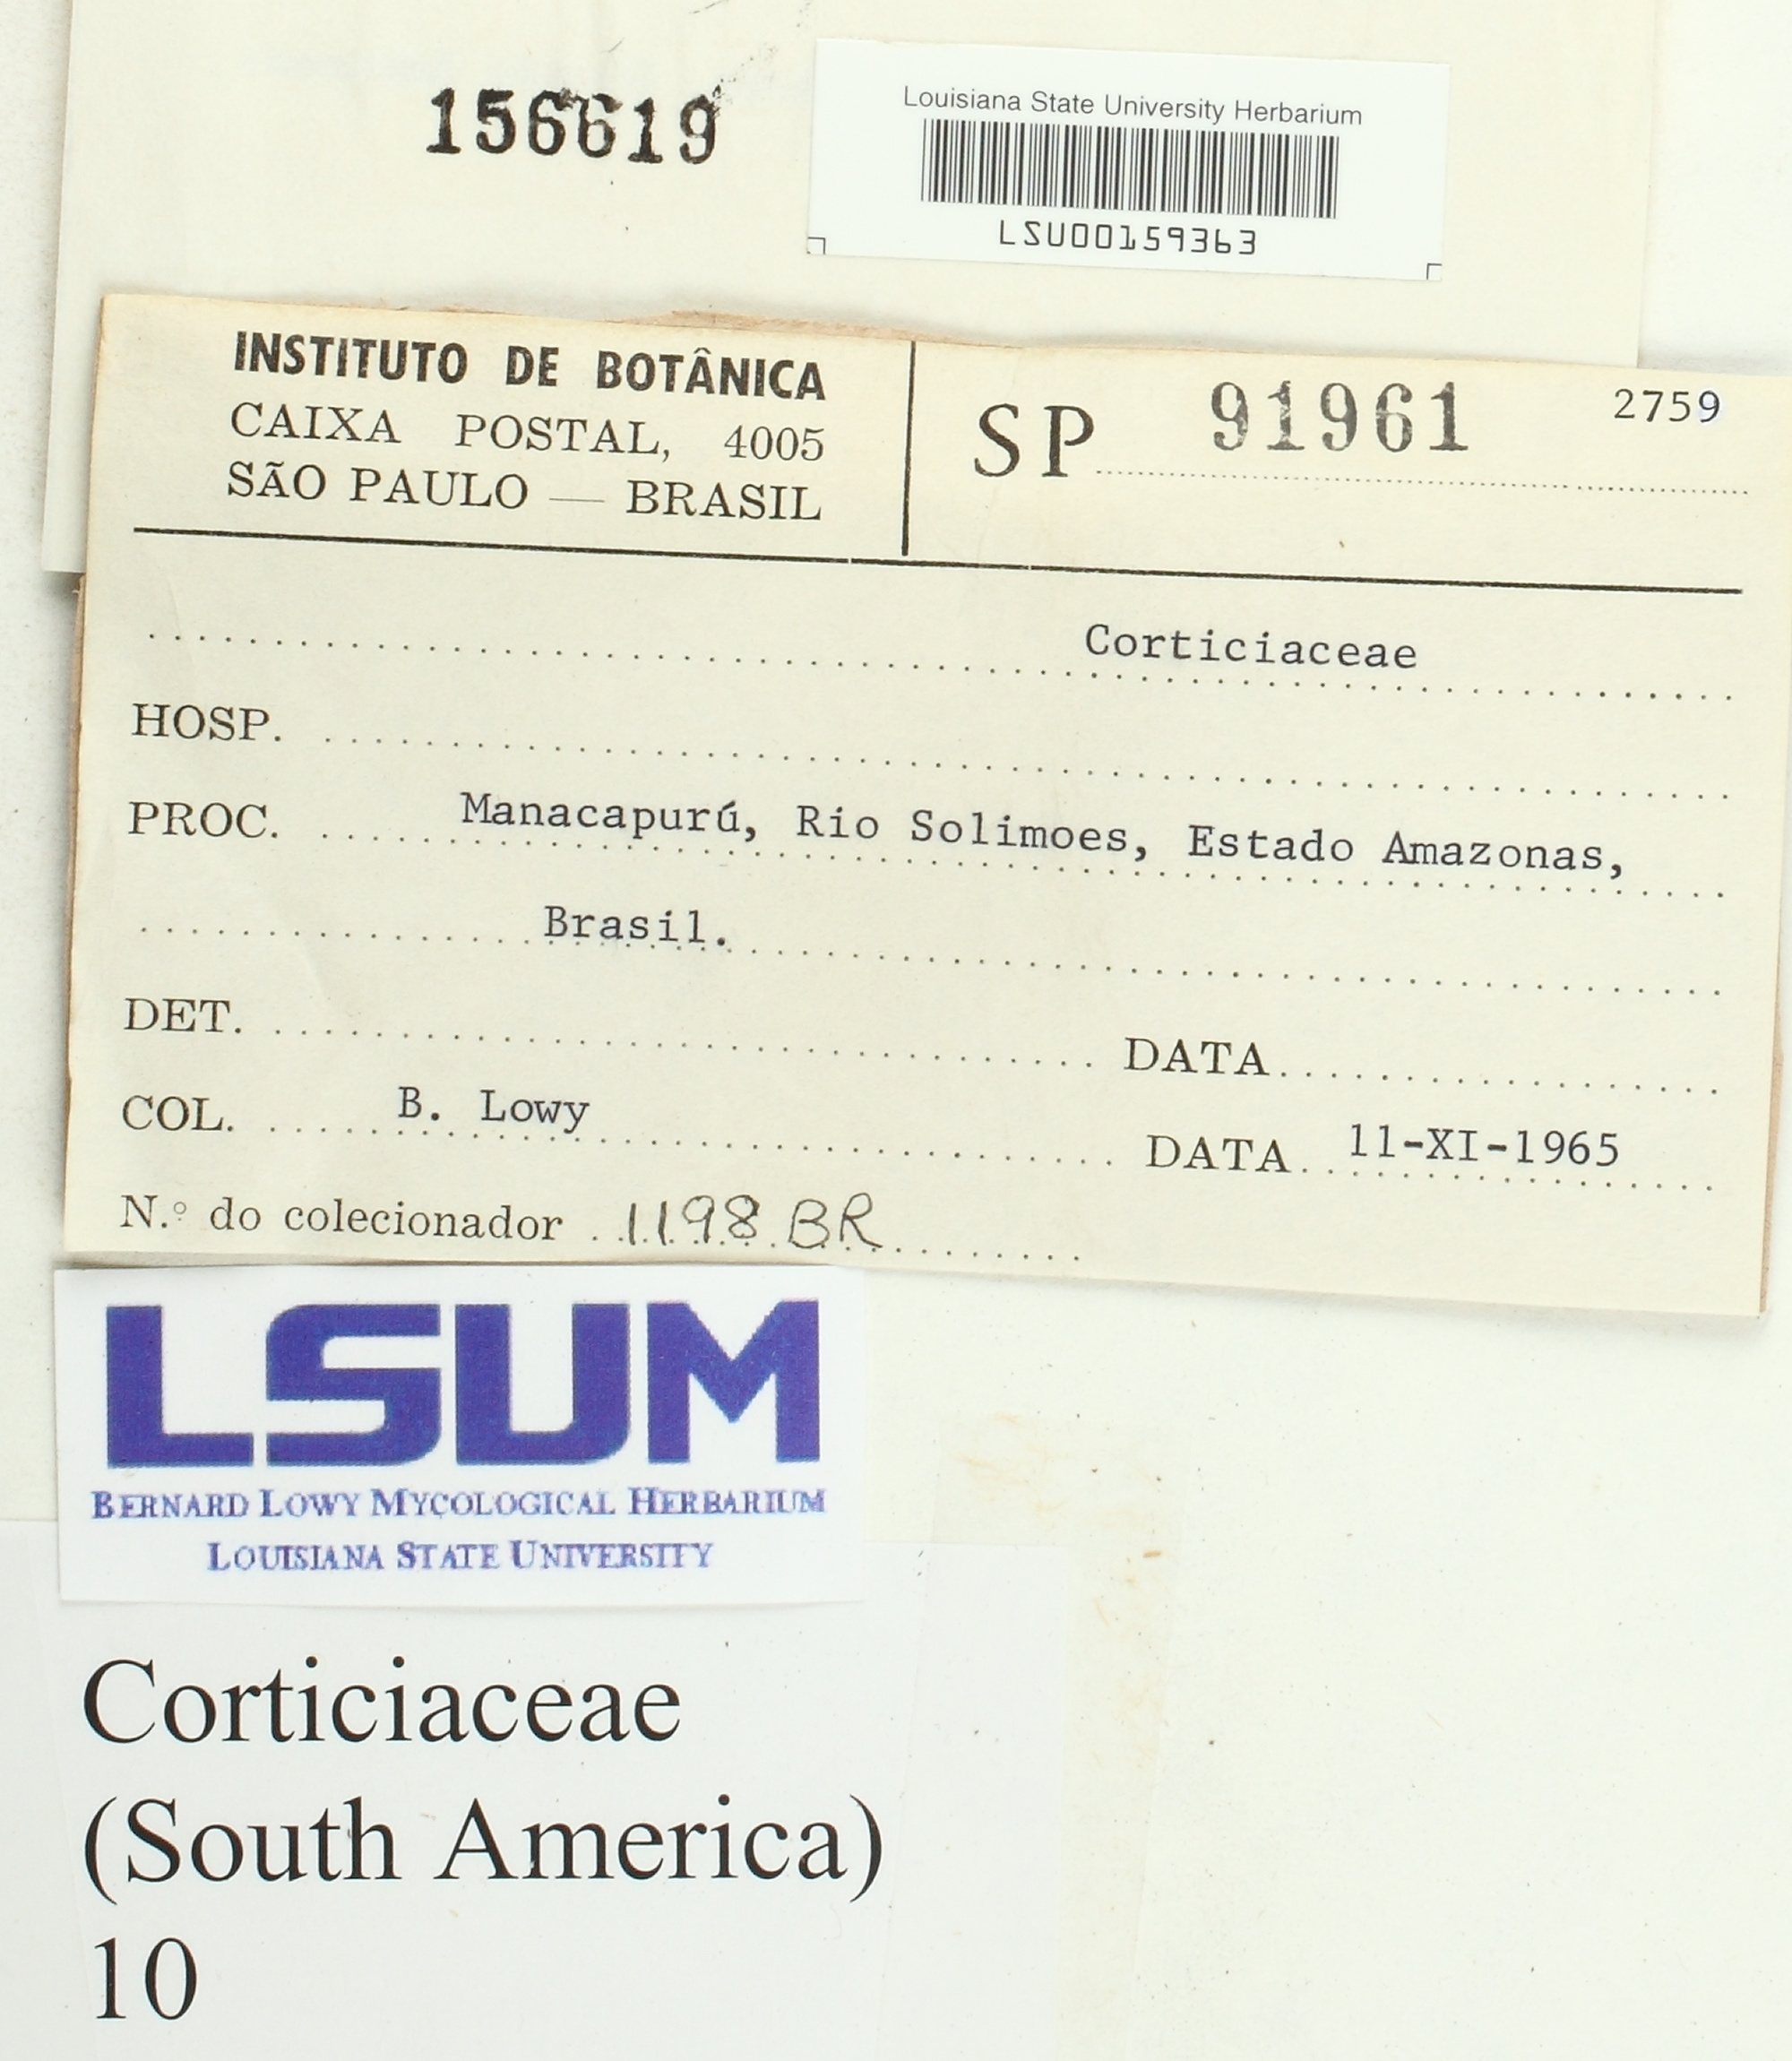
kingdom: Fungi
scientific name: Fungi
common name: Fungi
